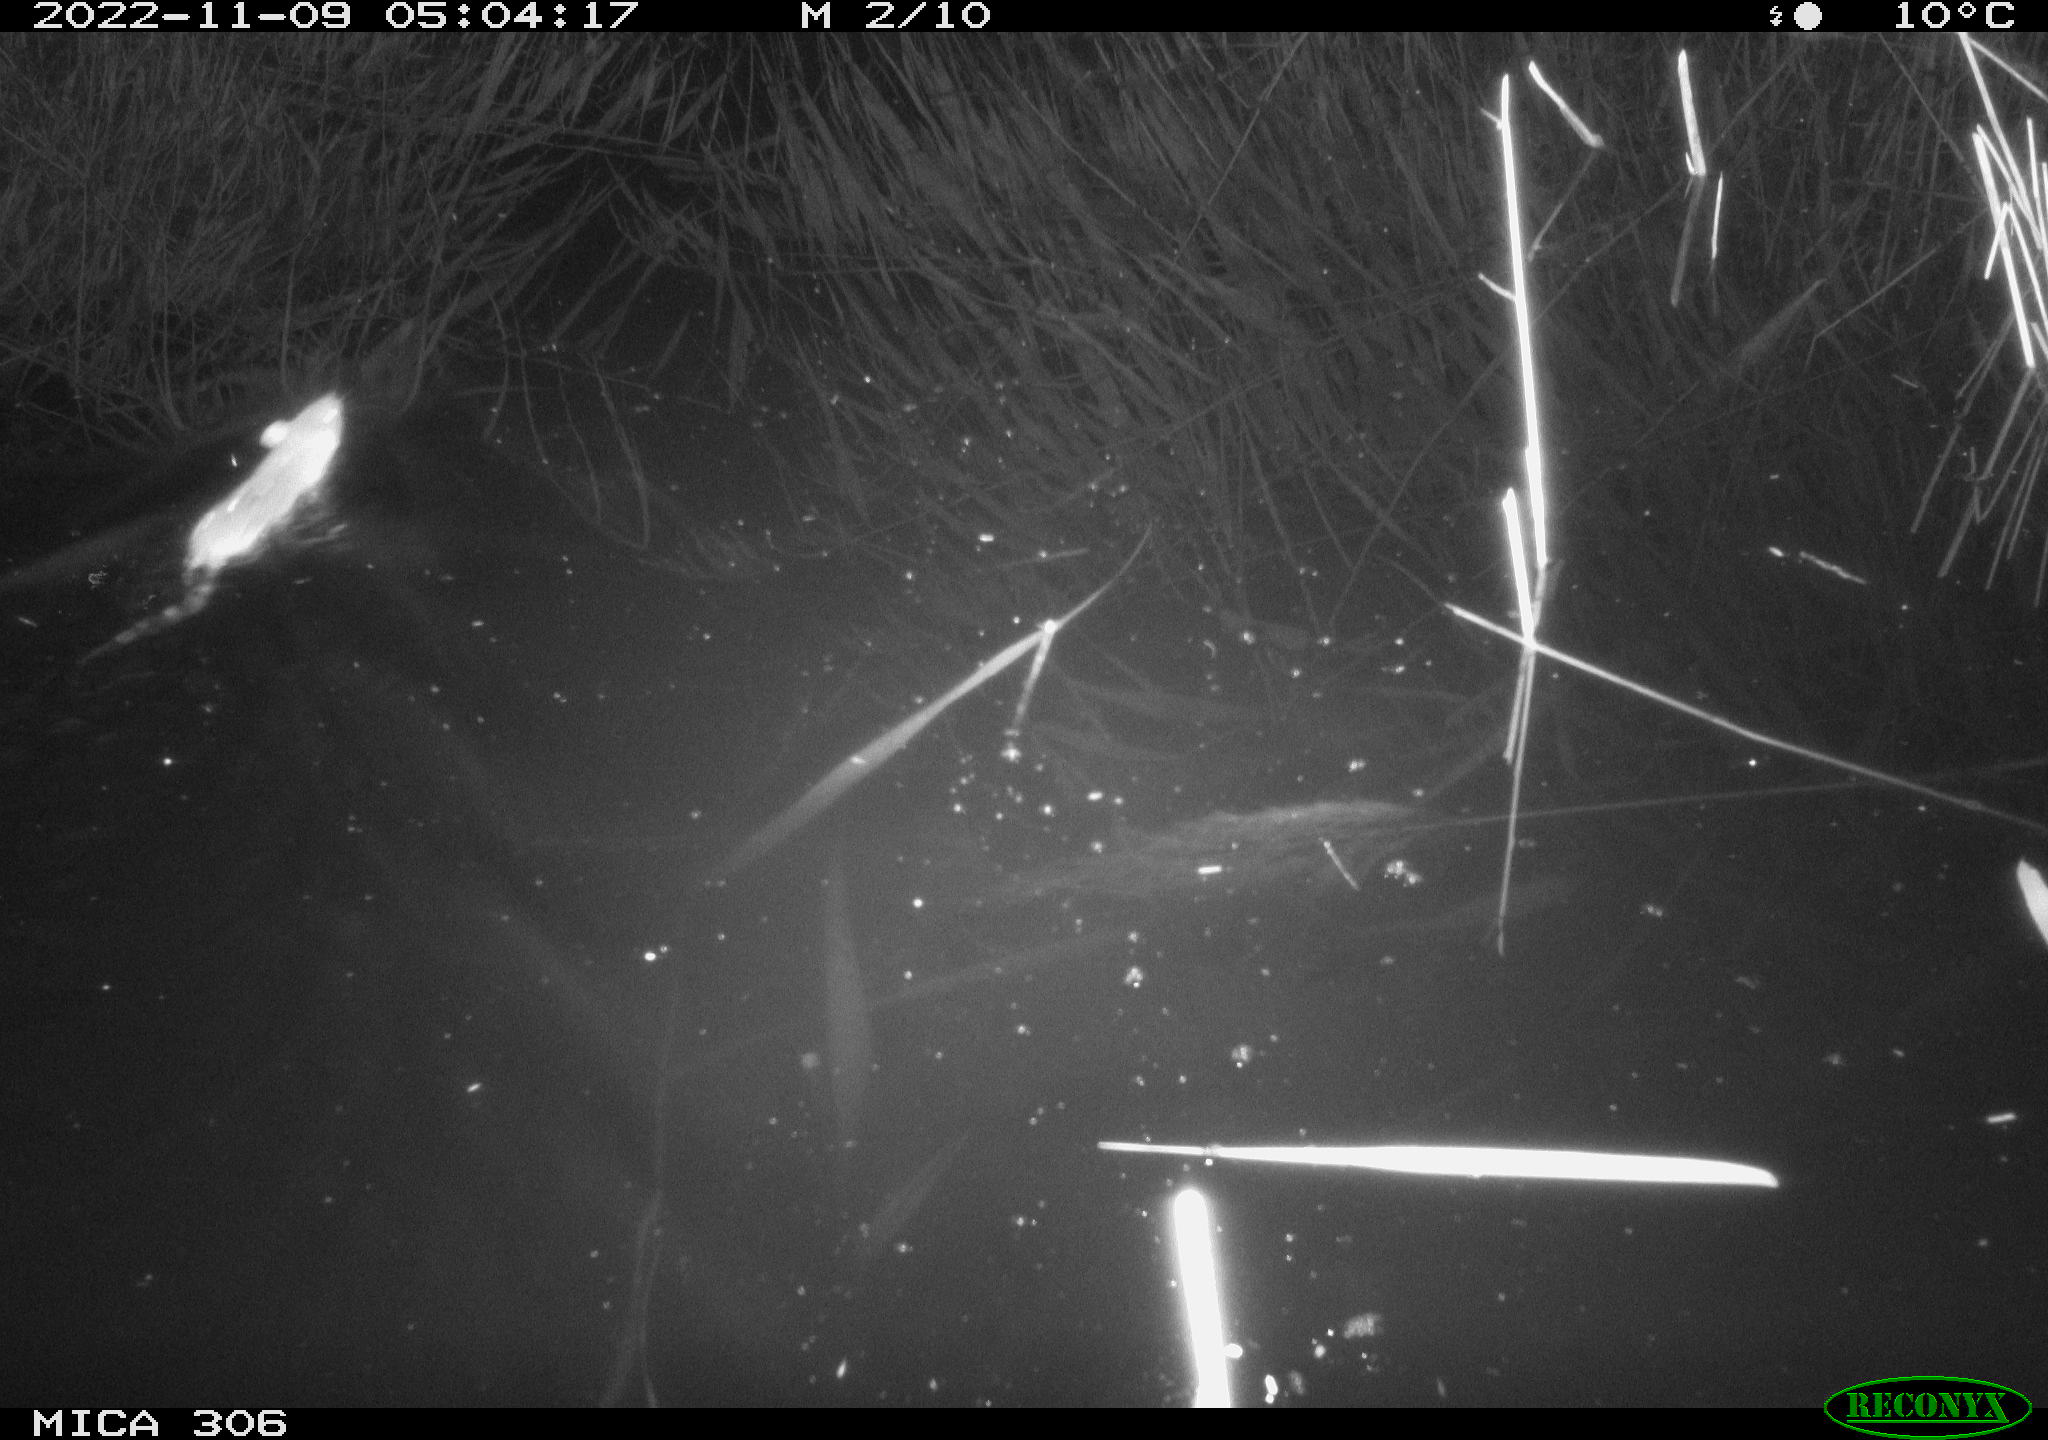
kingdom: Animalia
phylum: Chordata
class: Mammalia
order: Rodentia
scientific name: Rodentia
